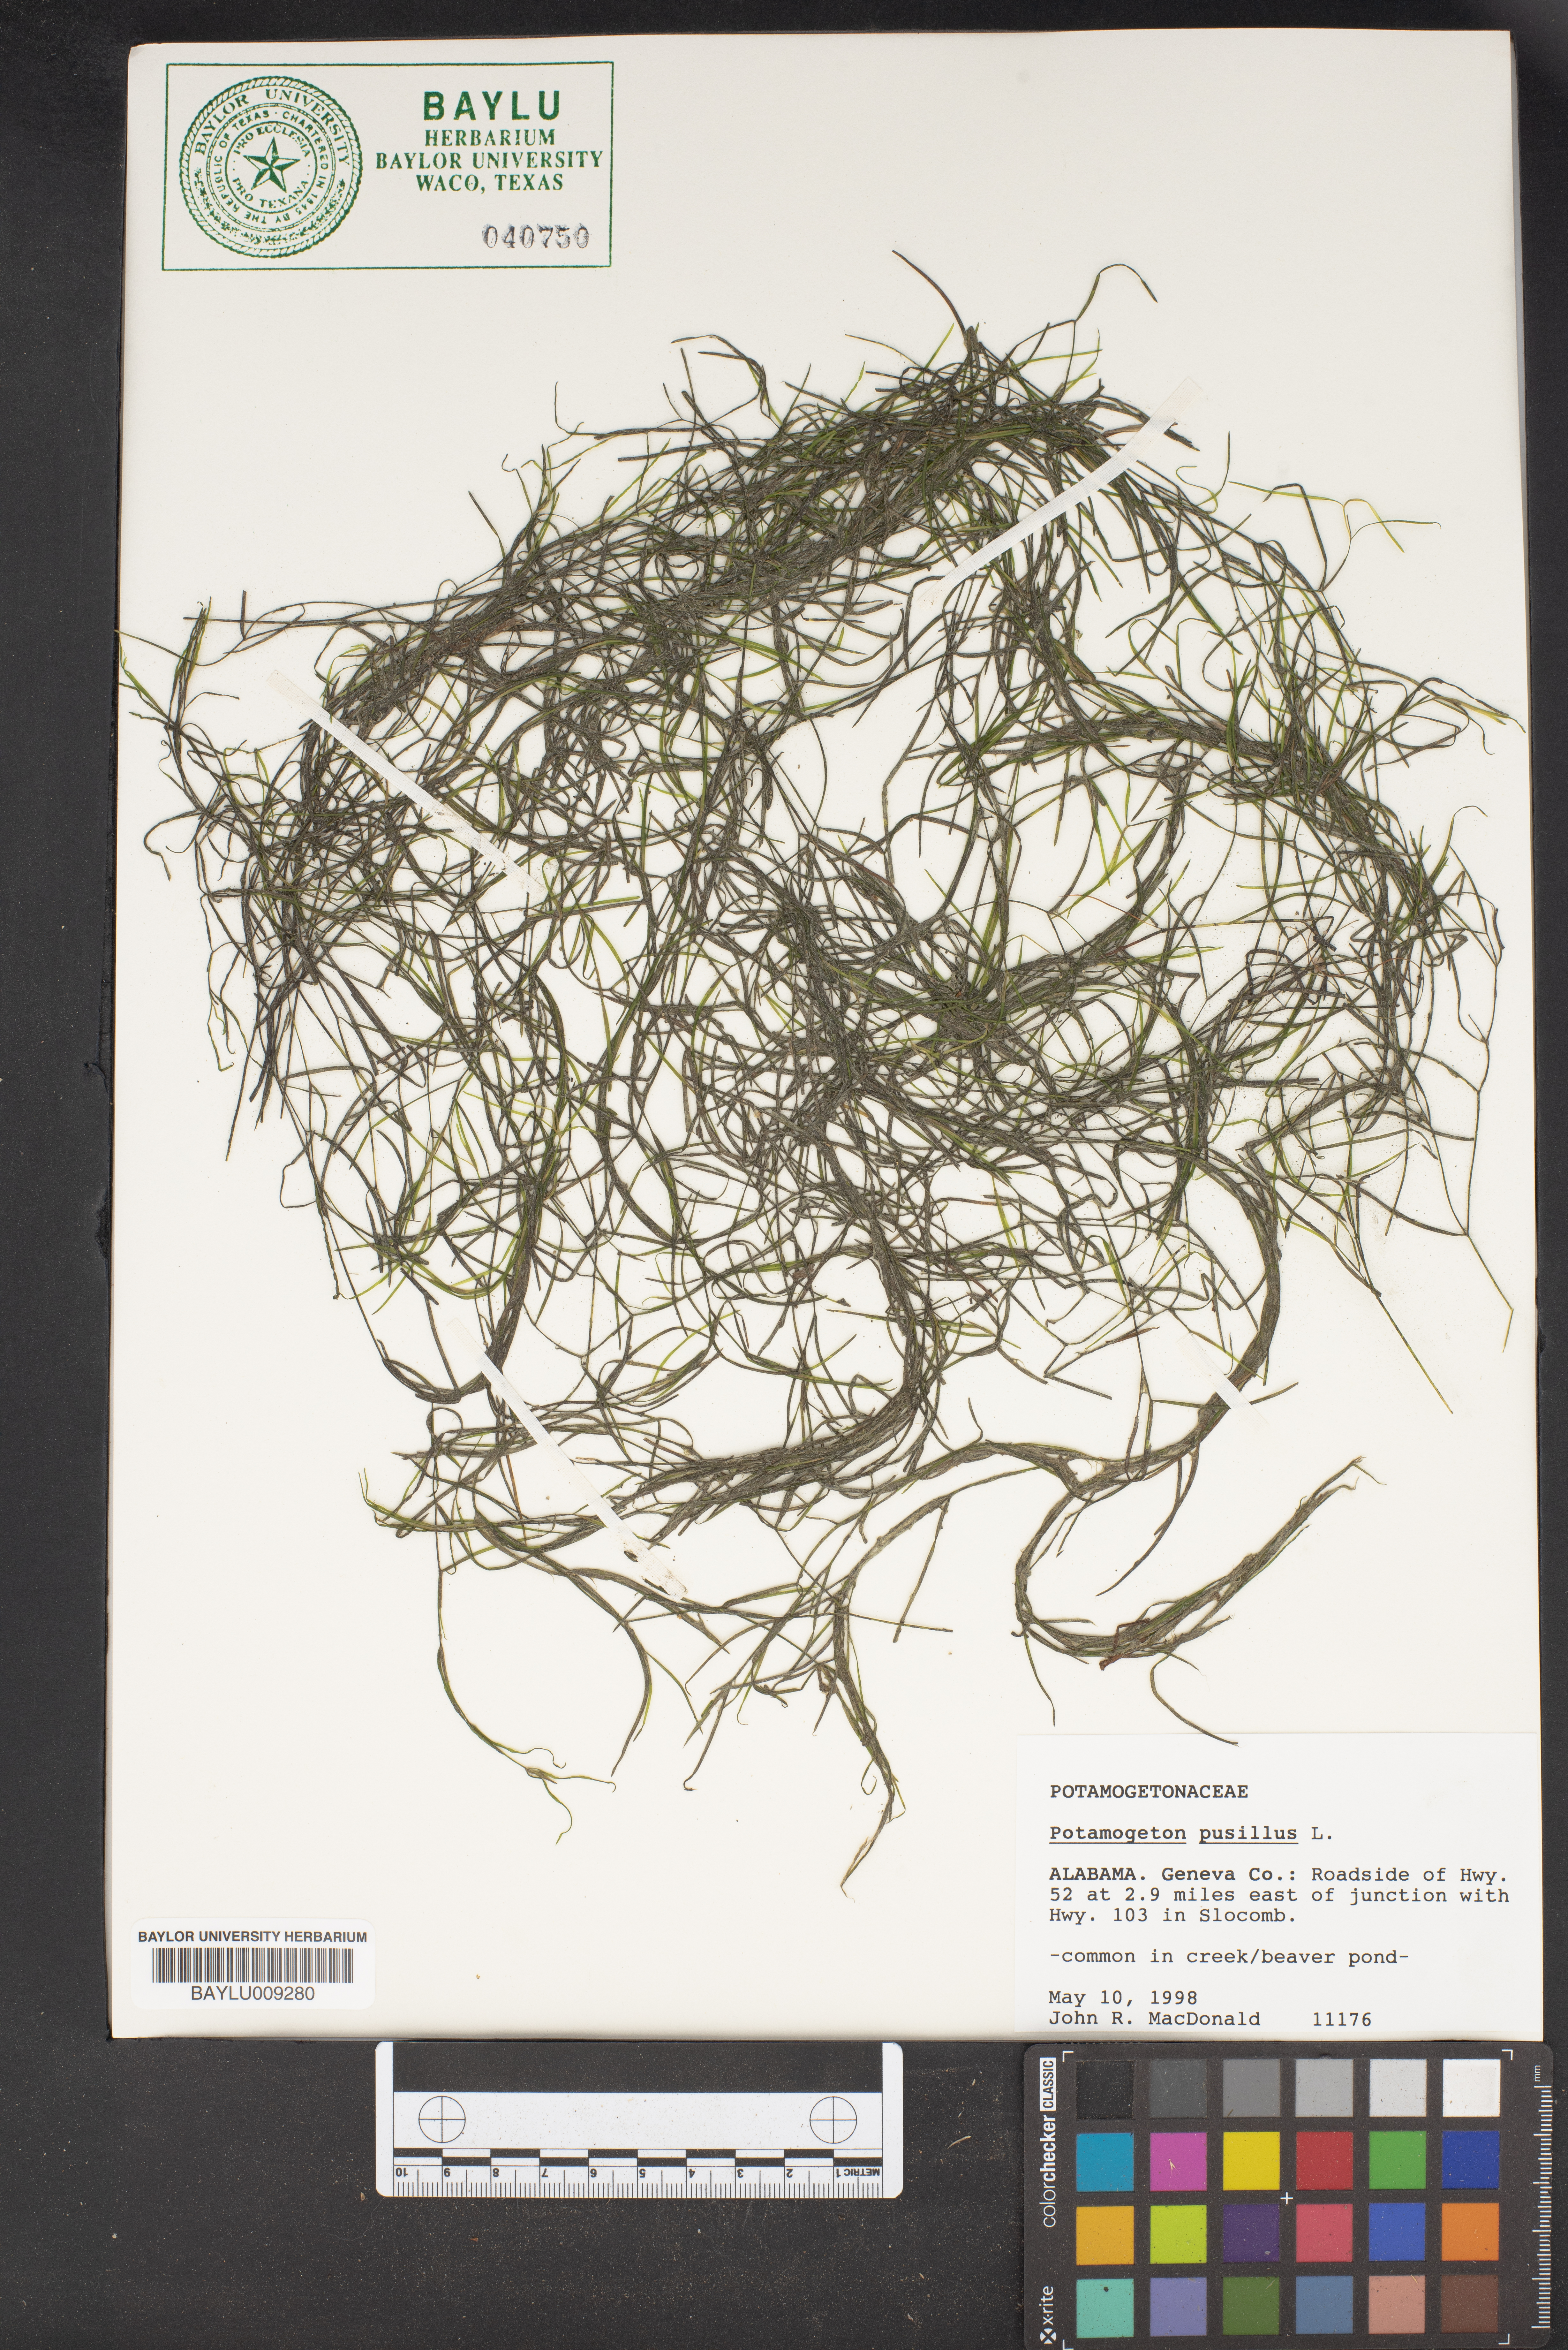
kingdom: Plantae
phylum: Tracheophyta
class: Liliopsida
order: Alismatales
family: Potamogetonaceae
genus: Potamogeton
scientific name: Potamogeton pusillus
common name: Lesser pondweed
